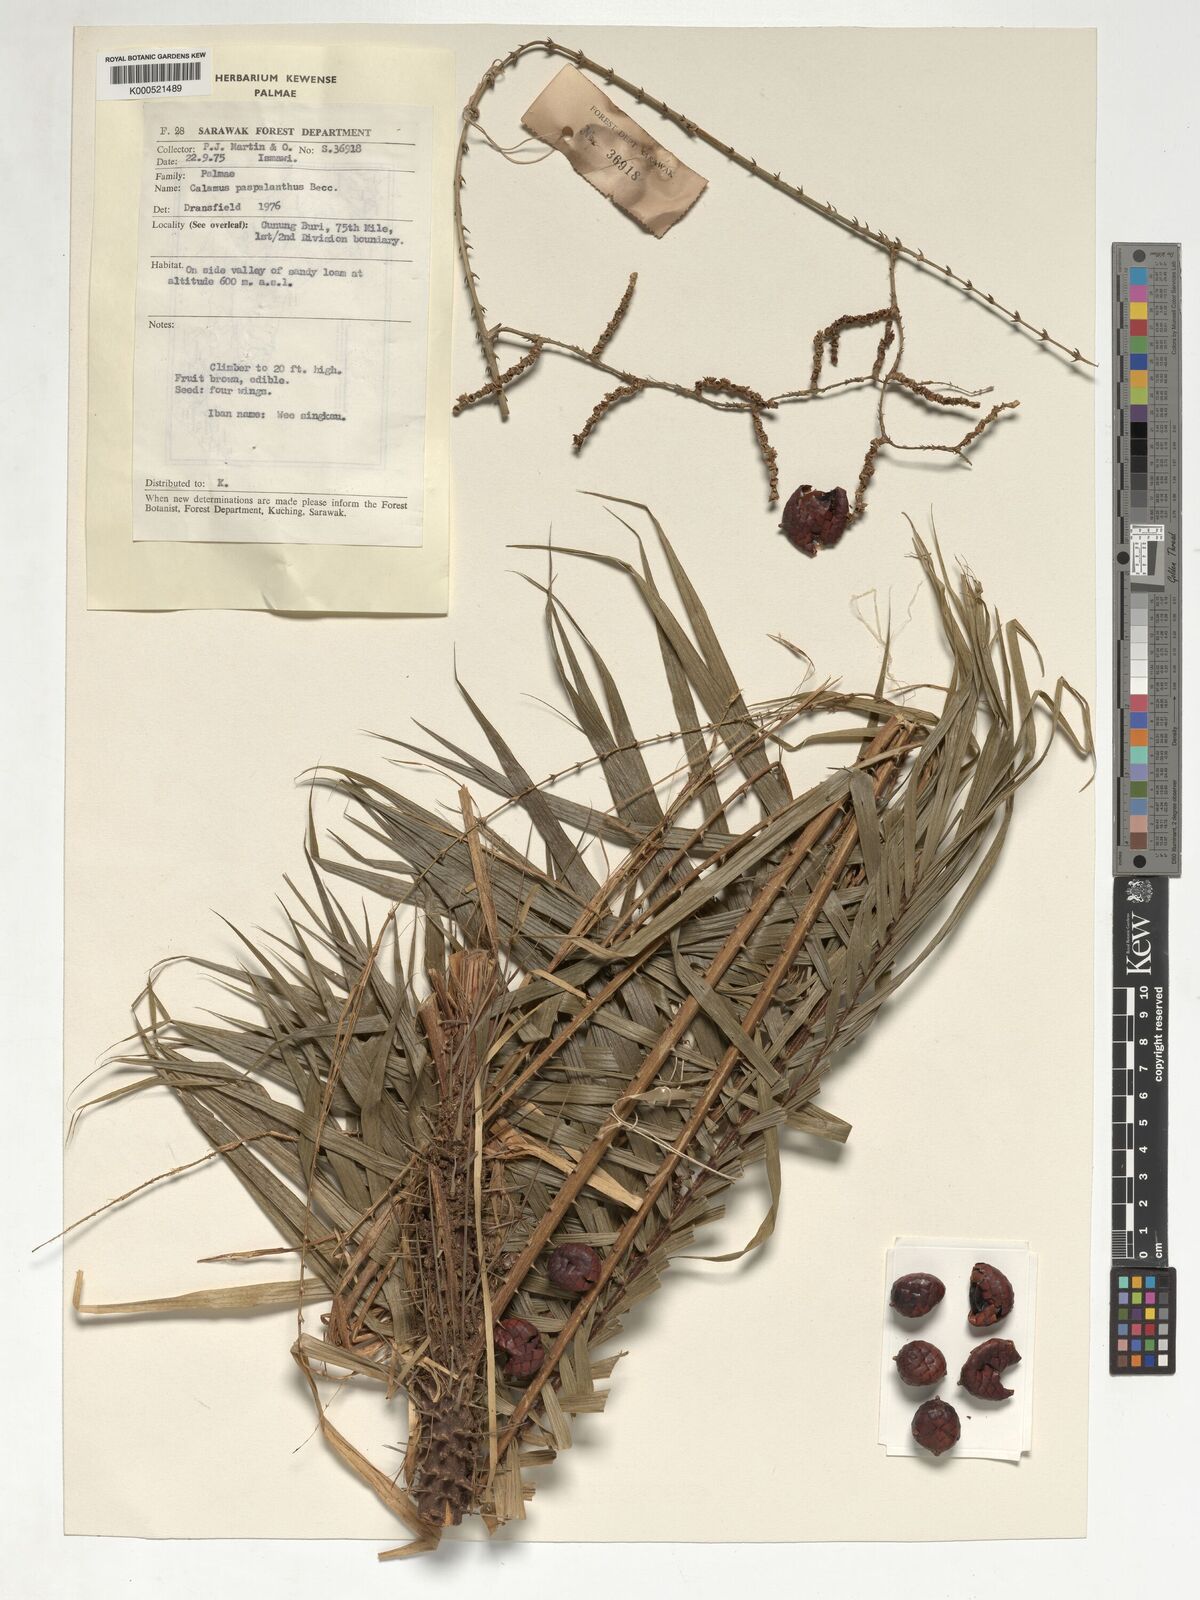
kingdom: Plantae
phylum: Tracheophyta
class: Liliopsida
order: Arecales
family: Arecaceae
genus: Calamus
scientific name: Calamus paspalanthus
